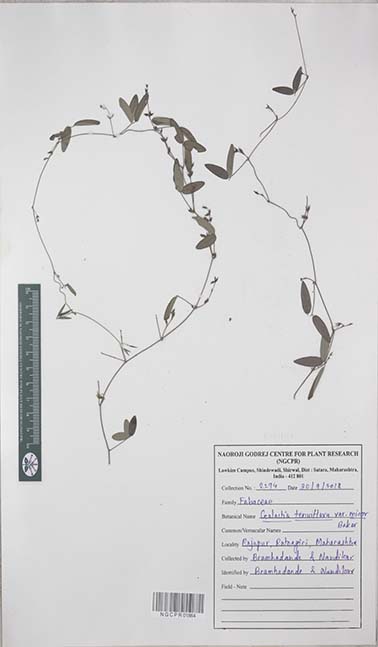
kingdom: Plantae
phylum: Tracheophyta
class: Magnoliopsida
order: Fabales
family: Fabaceae
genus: Galactia
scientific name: Galactia striata
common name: Florida hammock milkpea
